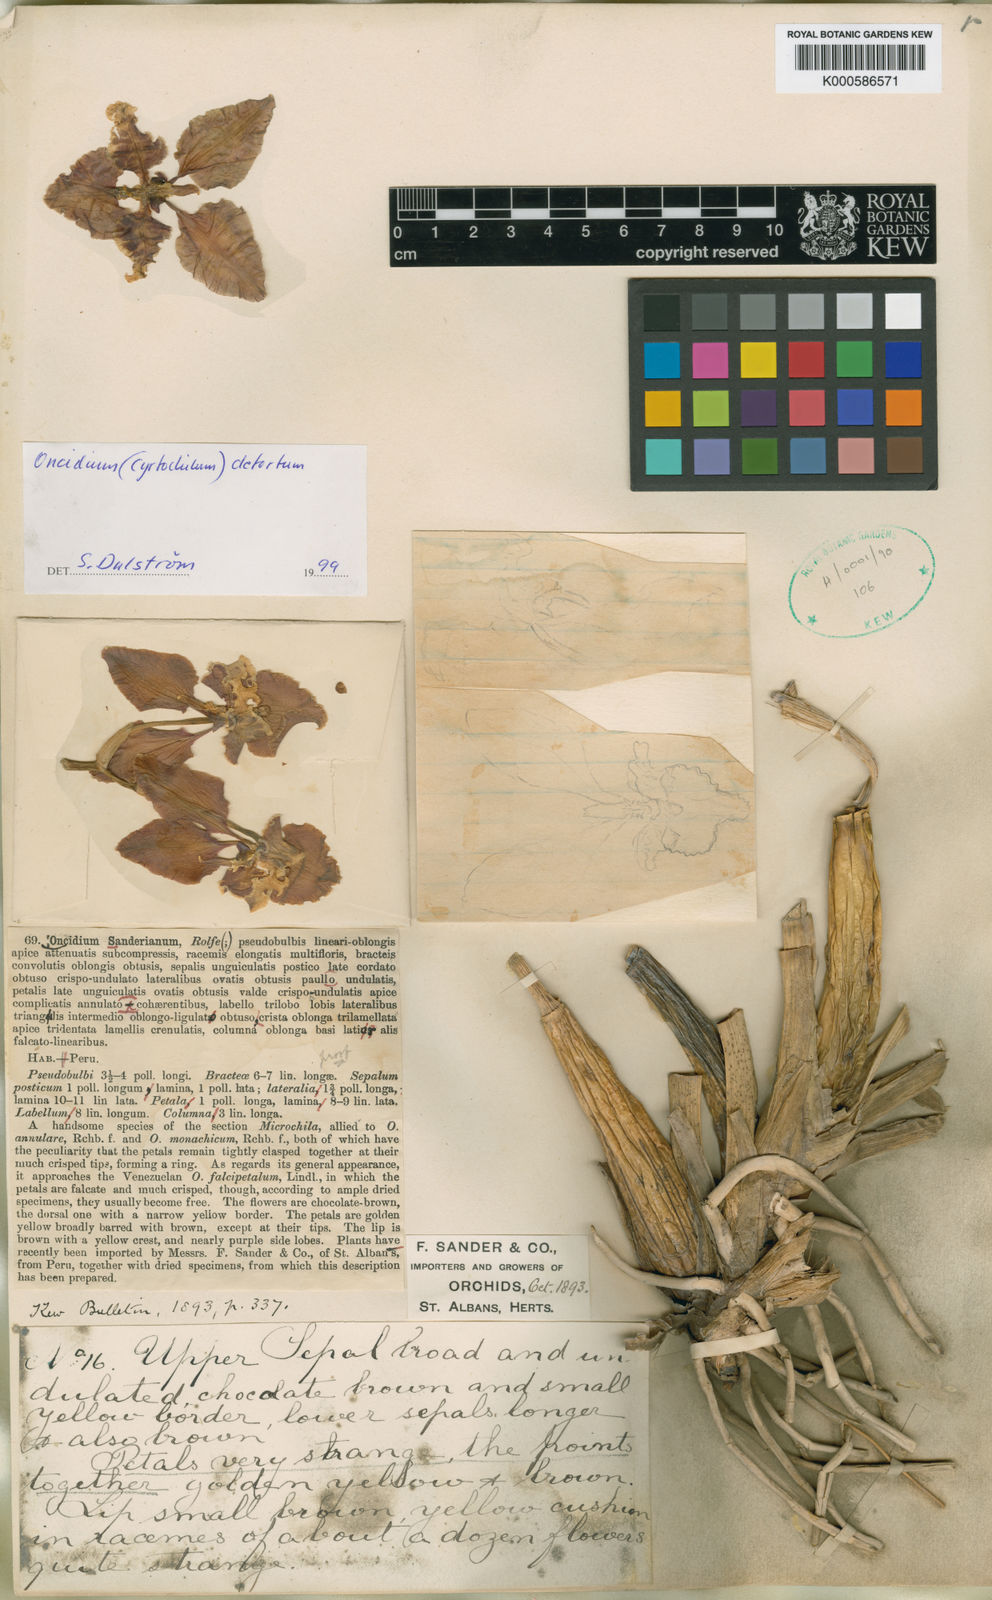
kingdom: Plantae
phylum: Tracheophyta
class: Liliopsida
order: Asparagales
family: Orchidaceae
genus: Cyrtochilum
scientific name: Cyrtochilum detortum
